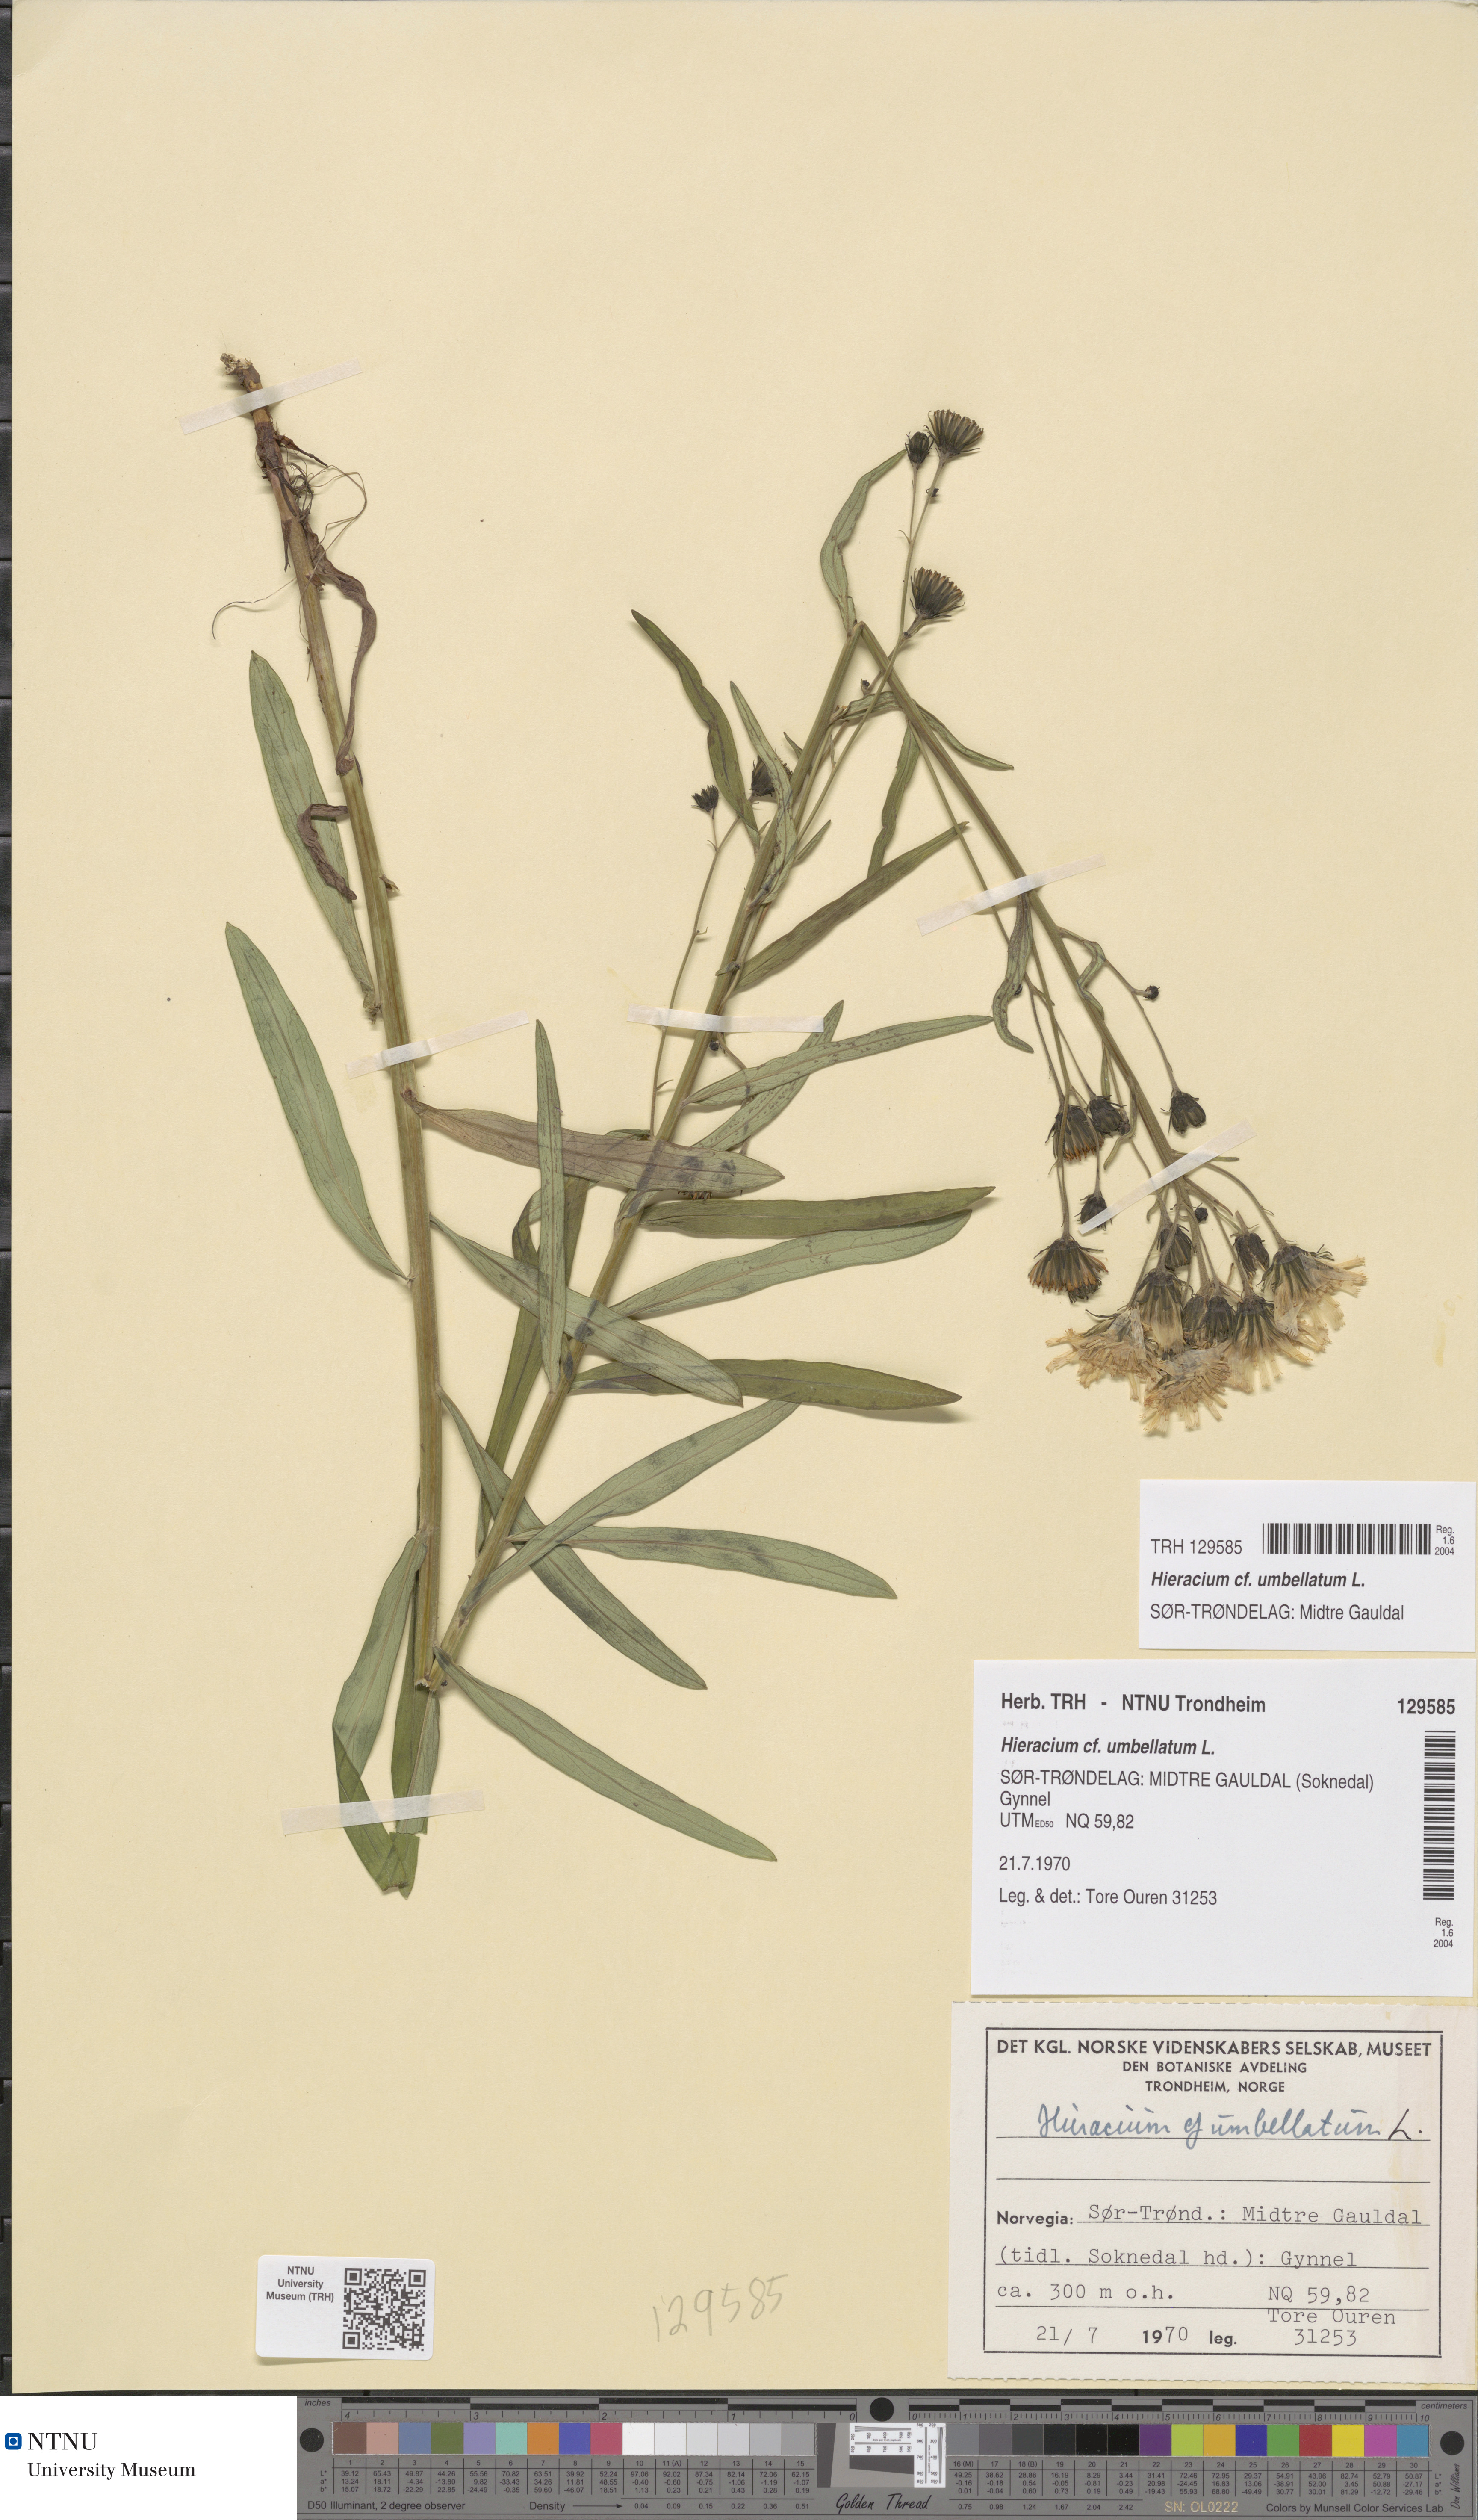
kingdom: Plantae
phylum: Tracheophyta
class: Magnoliopsida
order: Asterales
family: Asteraceae
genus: Hieracium
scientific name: Hieracium umbellatum
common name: Northern hawkweed
